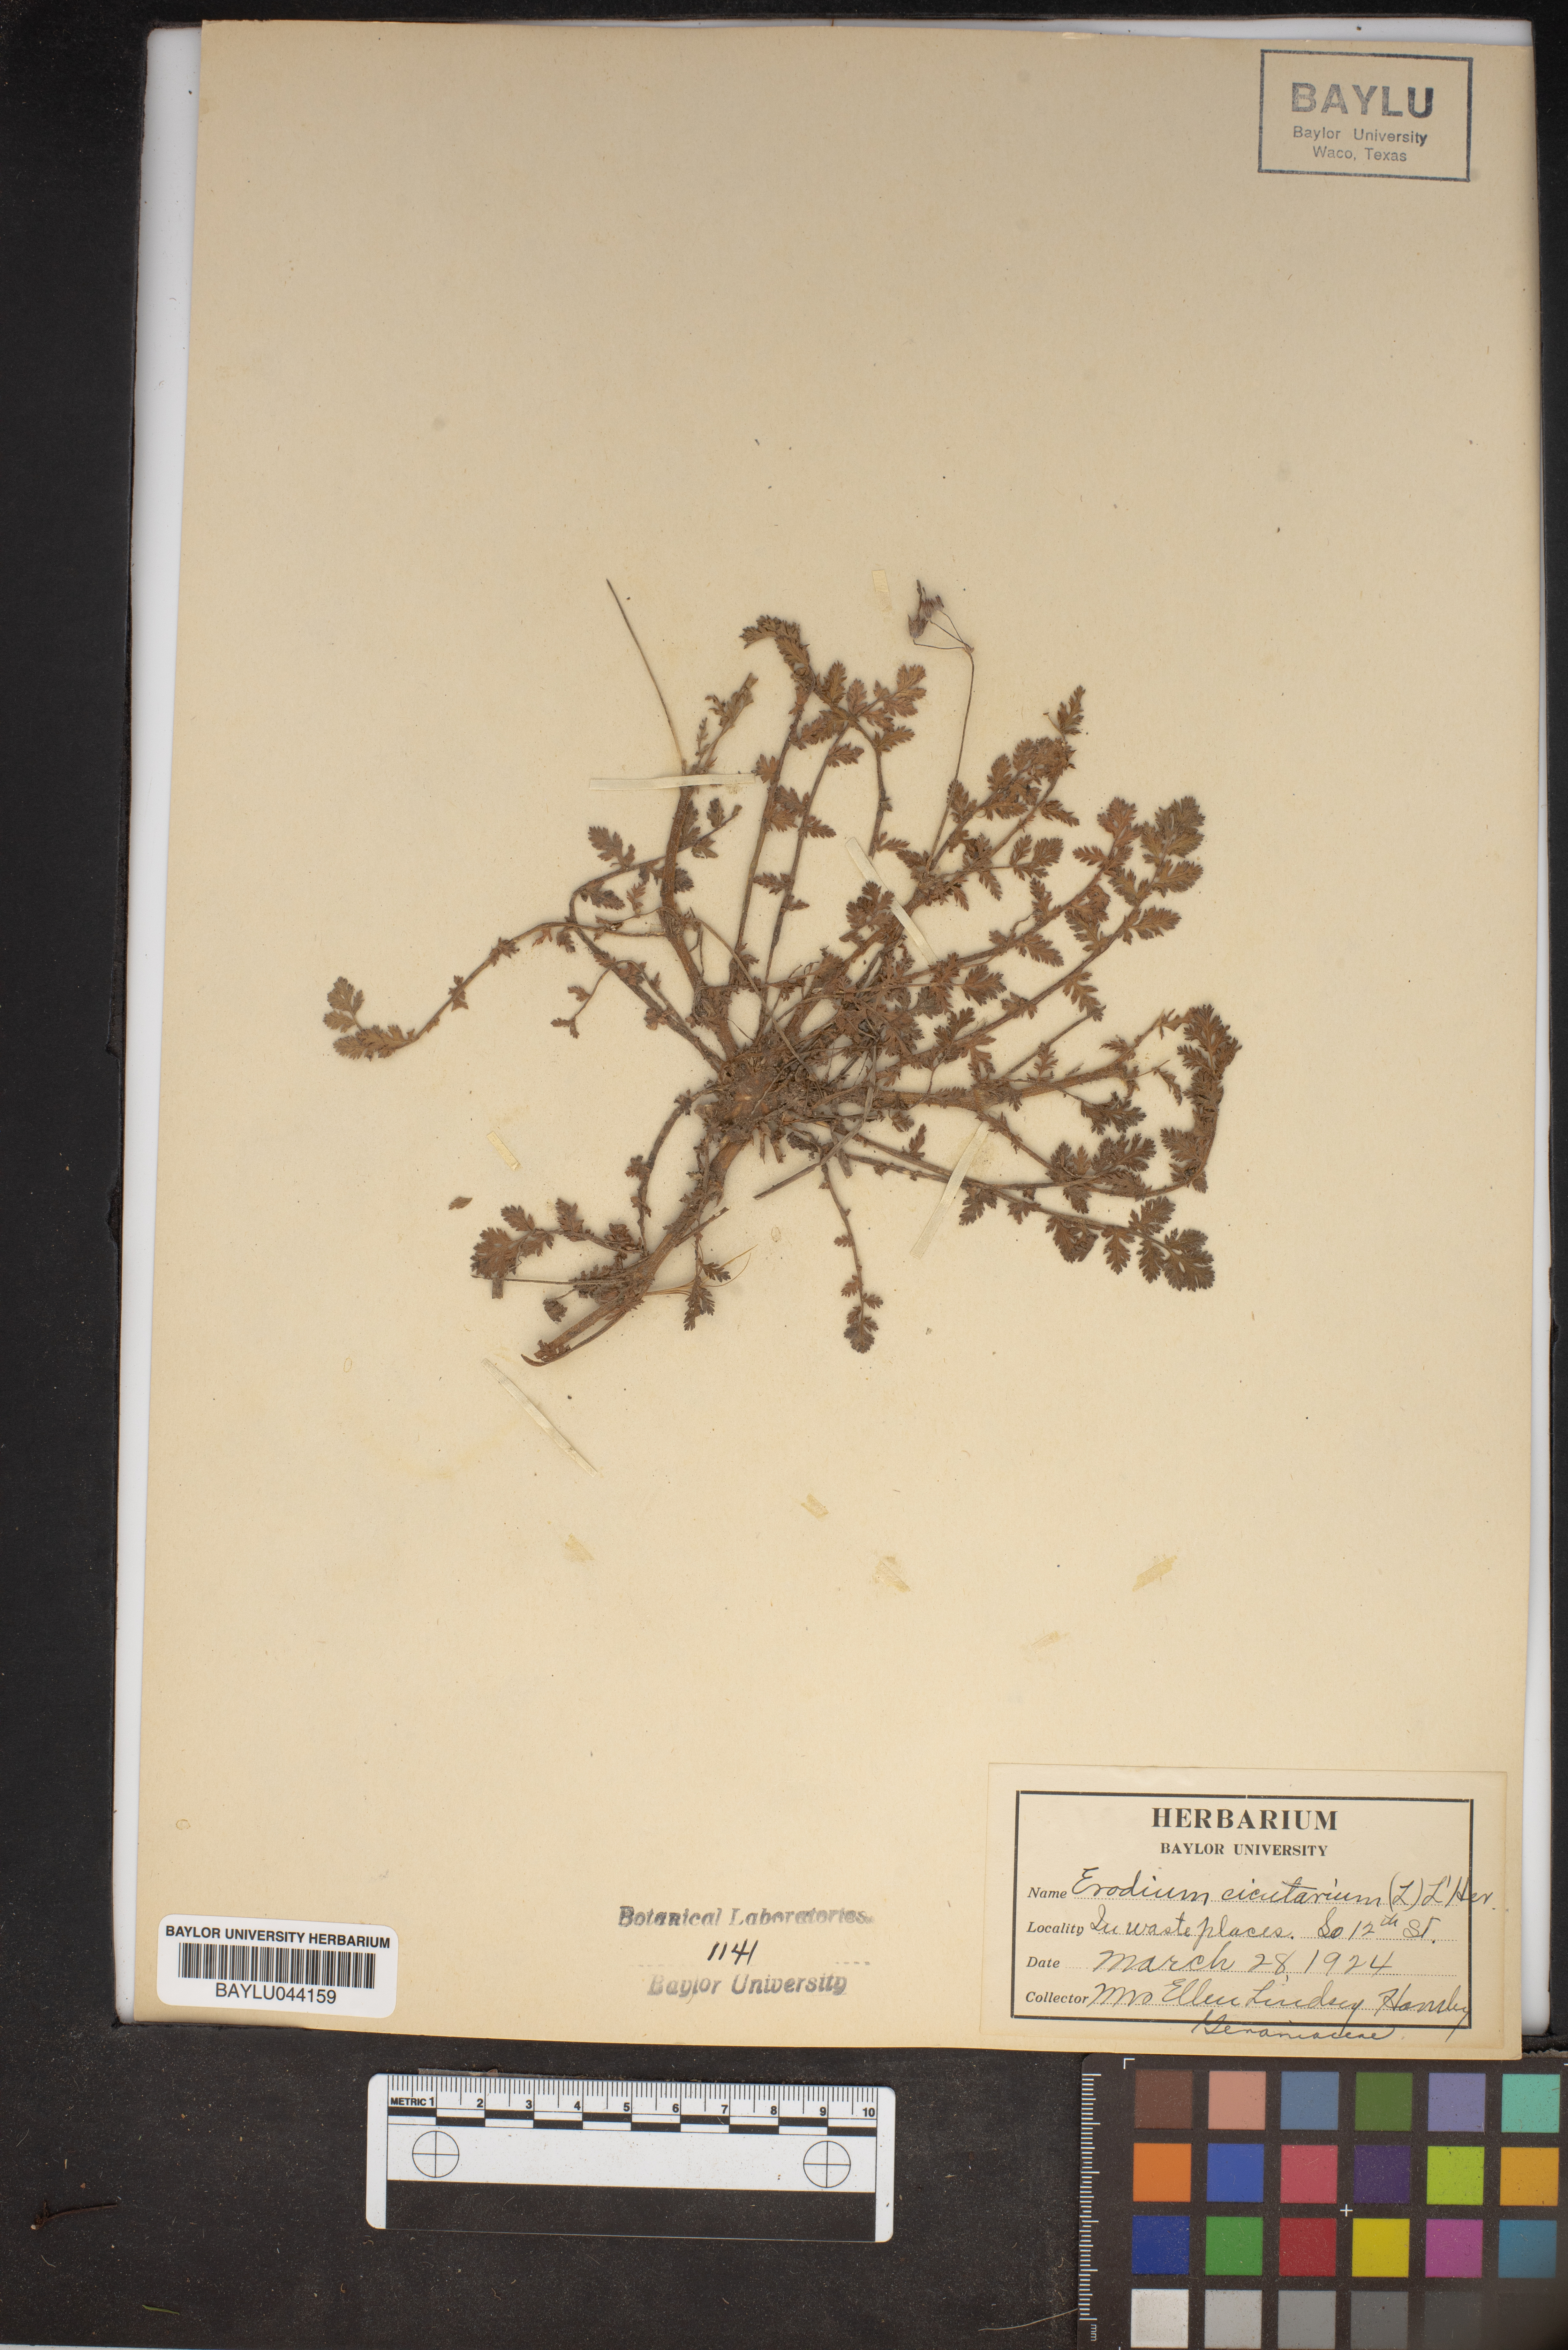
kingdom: Plantae
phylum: Tracheophyta
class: Magnoliopsida
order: Geraniales
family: Geraniaceae
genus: Erodium
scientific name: Erodium cicutarium
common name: Common stork's-bill
